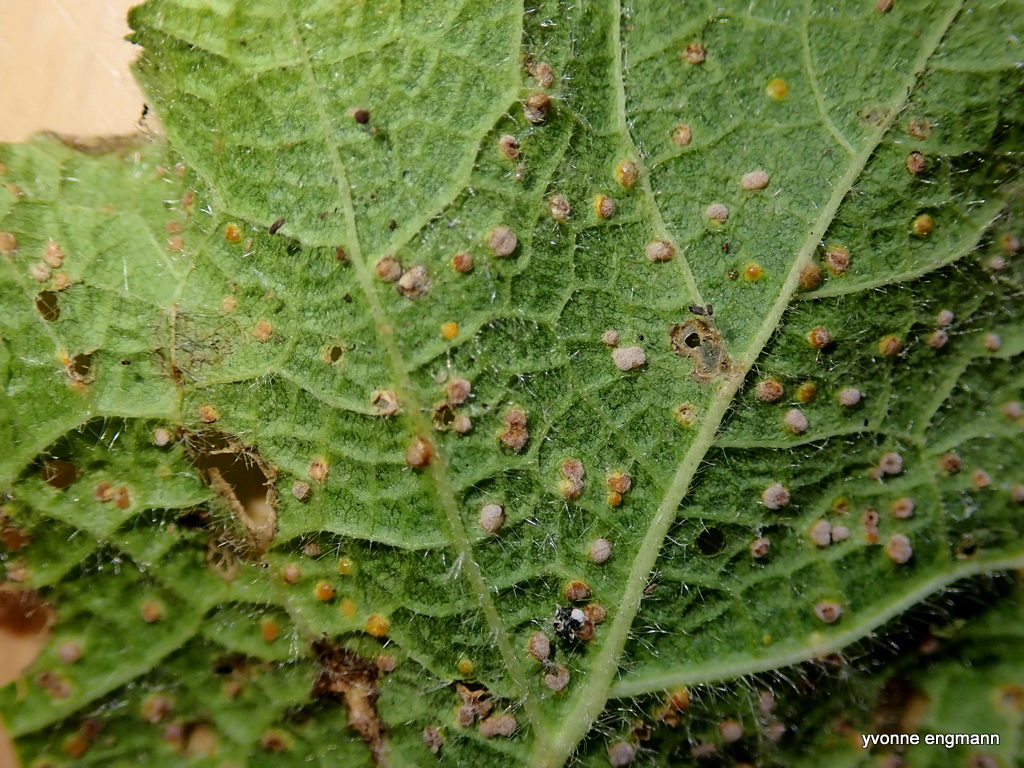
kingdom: Fungi
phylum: Basidiomycota
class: Pucciniomycetes
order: Pucciniales
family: Pucciniaceae
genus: Puccinia
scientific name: Puccinia malvacearum
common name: stokrose-tvecellerust
